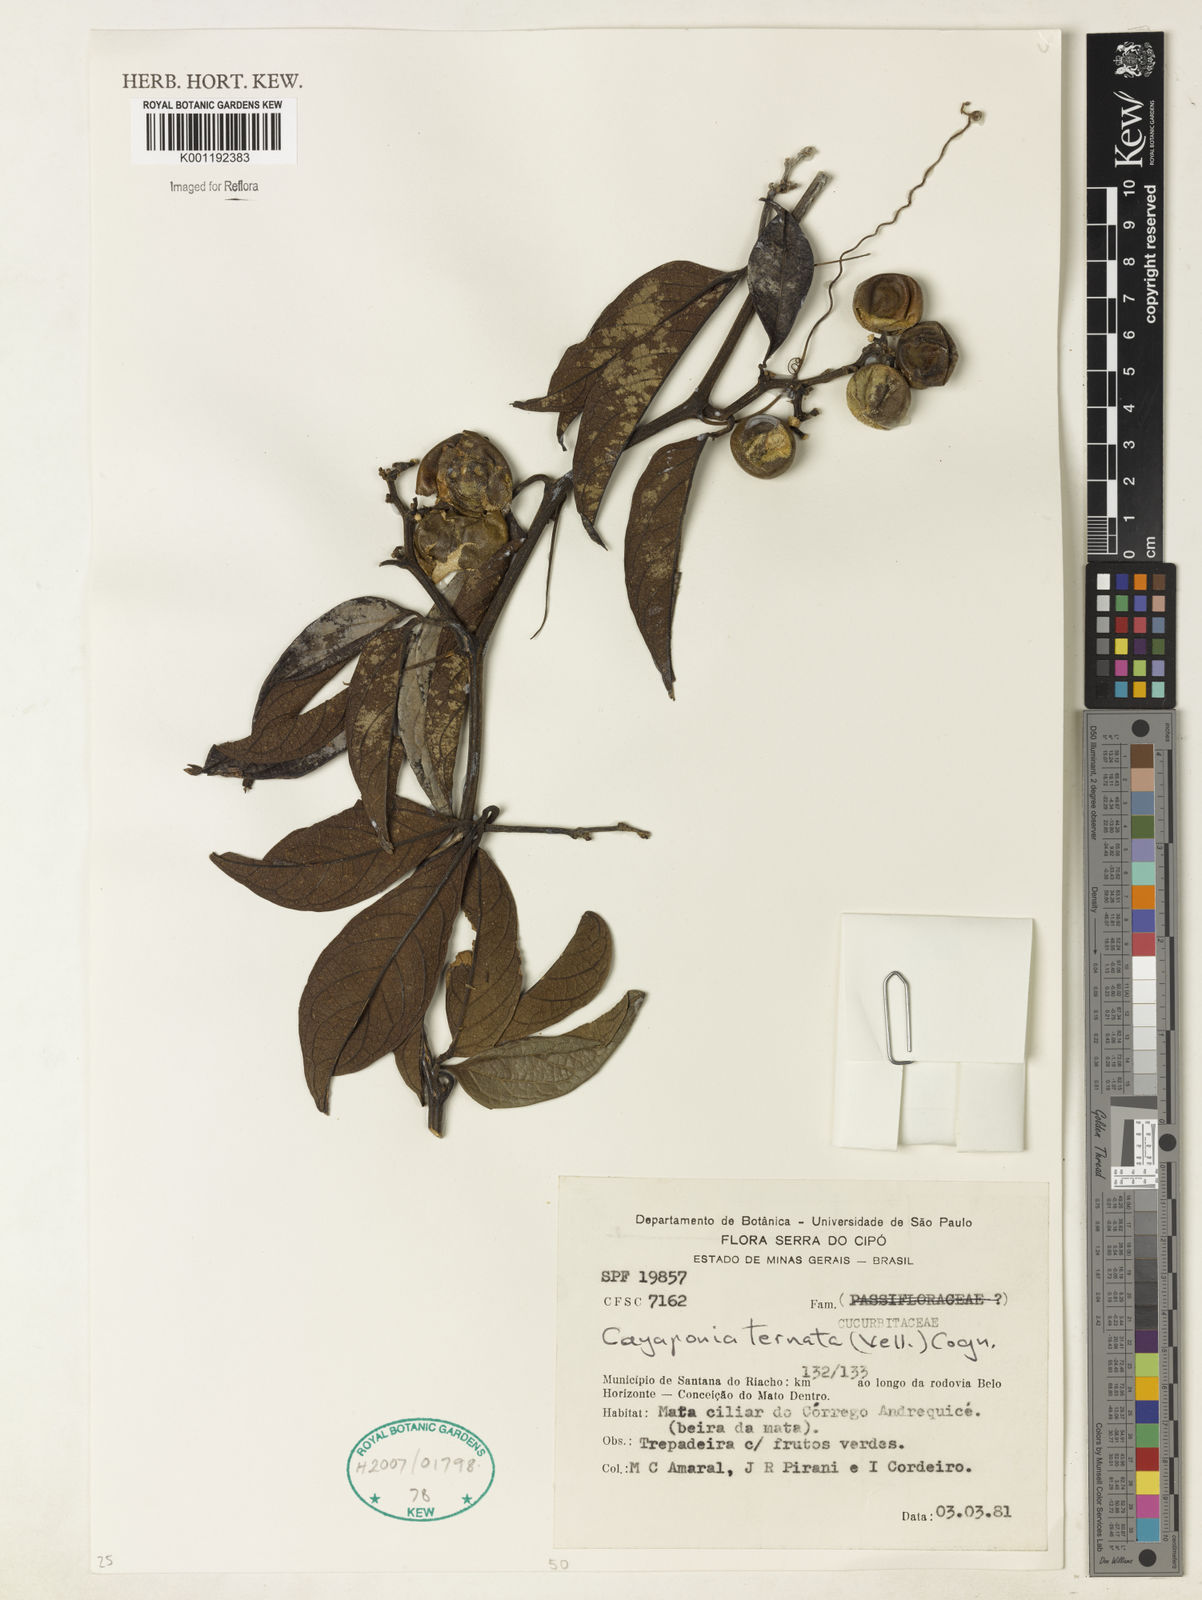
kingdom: Plantae
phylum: Tracheophyta
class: Magnoliopsida
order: Cucurbitales
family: Cucurbitaceae
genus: Cayaponia
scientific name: Cayaponia ternata
